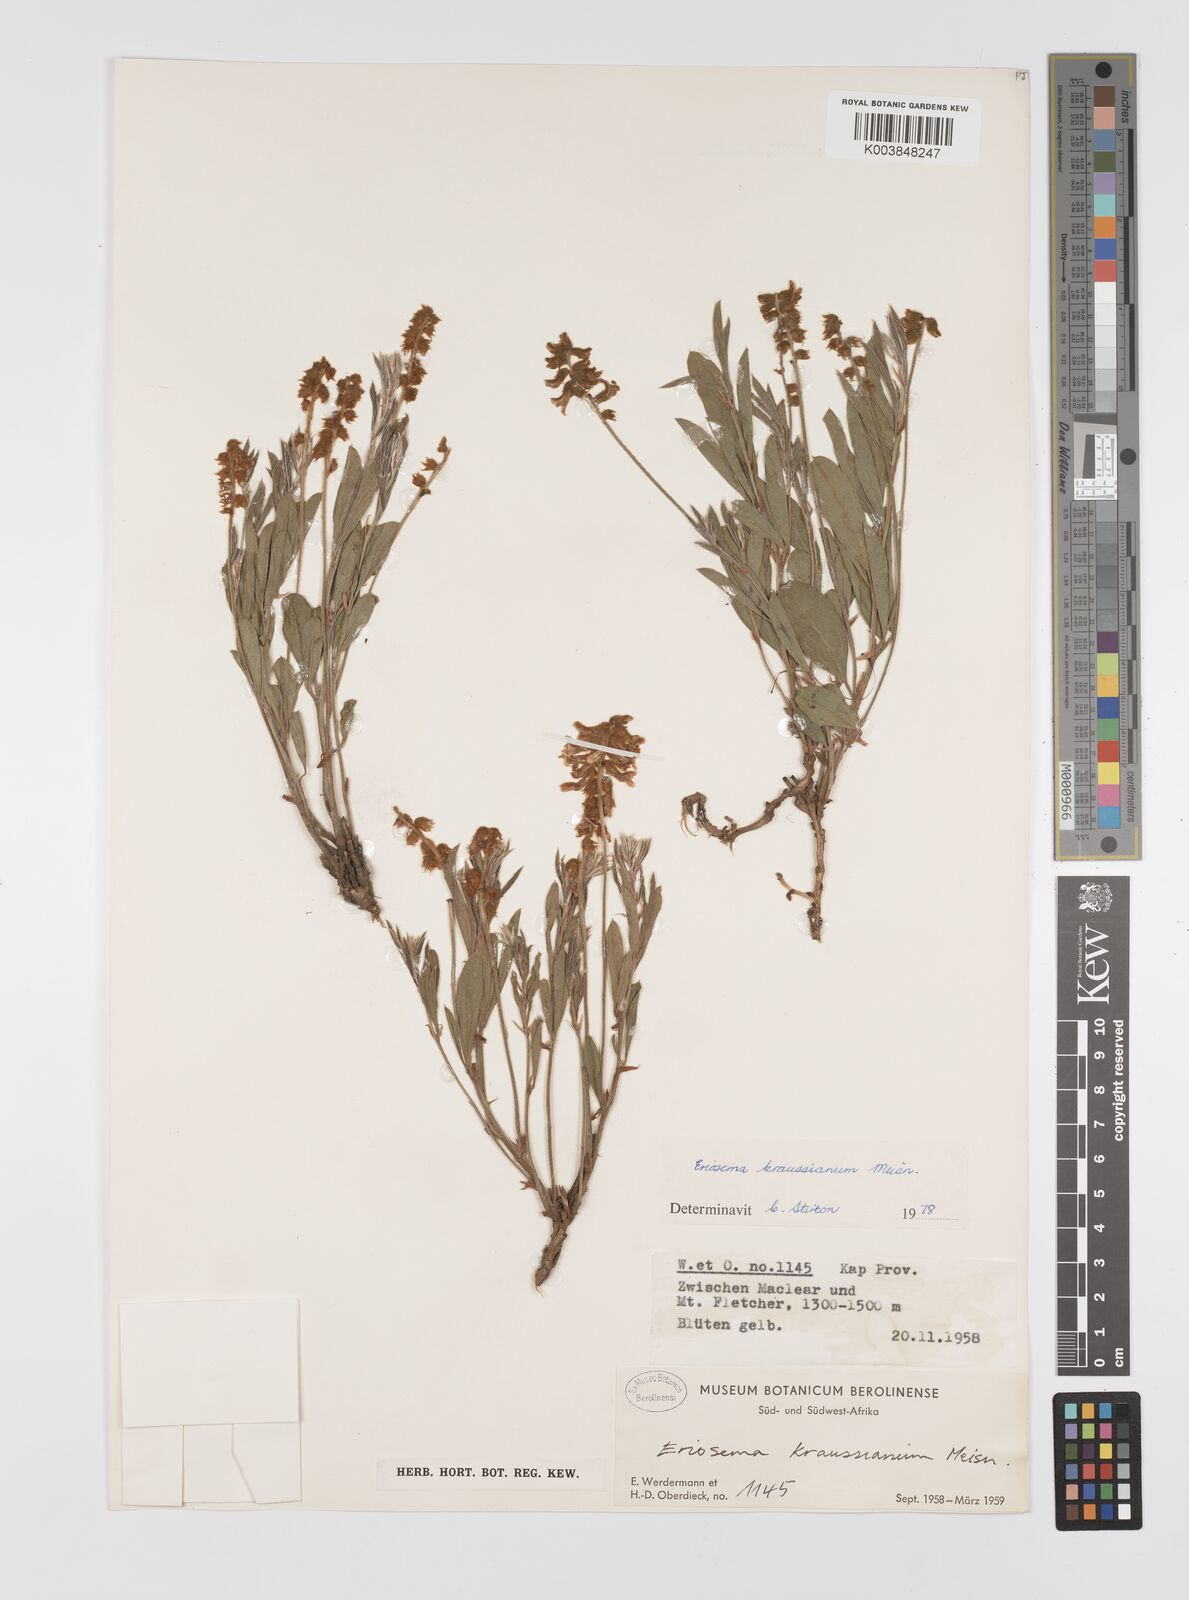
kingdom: Plantae
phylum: Tracheophyta
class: Magnoliopsida
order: Fabales
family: Fabaceae
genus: Eriosema
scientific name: Eriosema kraussianum
